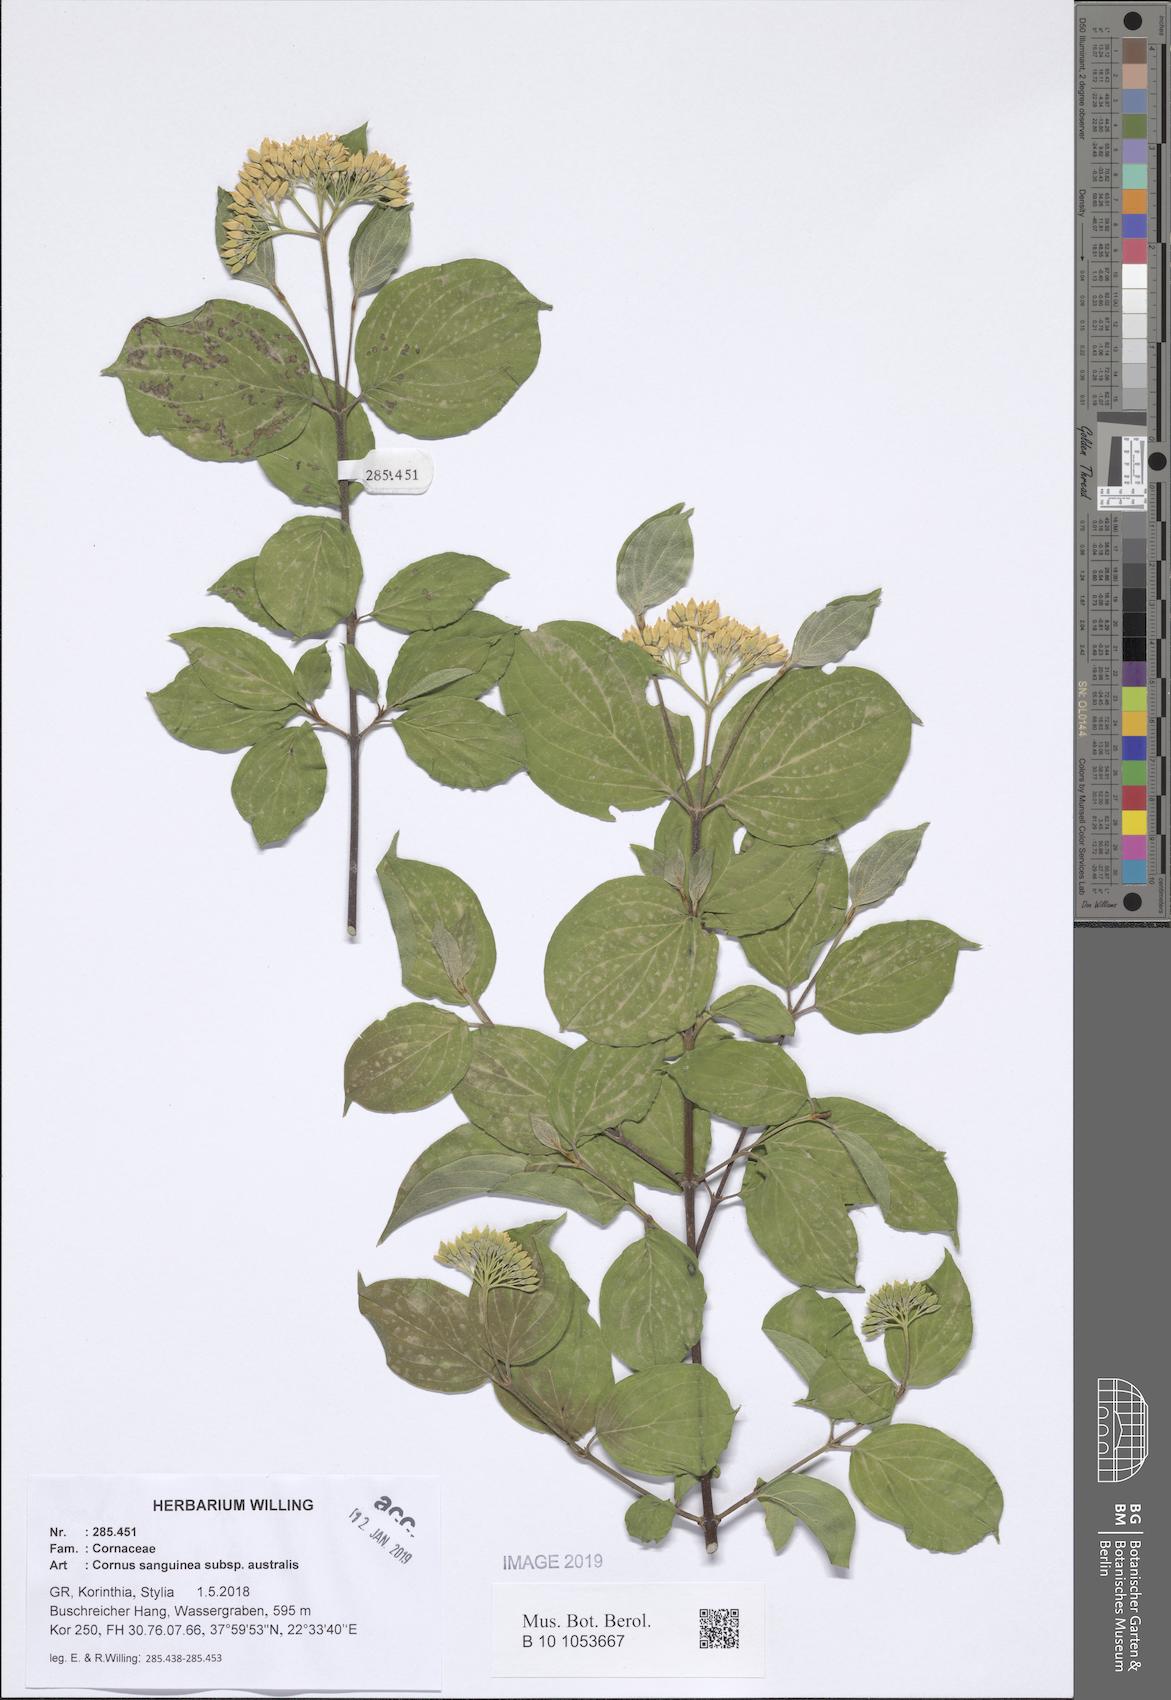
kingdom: Plantae
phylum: Tracheophyta
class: Magnoliopsida
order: Cornales
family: Cornaceae
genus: Cornus
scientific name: Cornus sanguinea
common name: Dogwood
